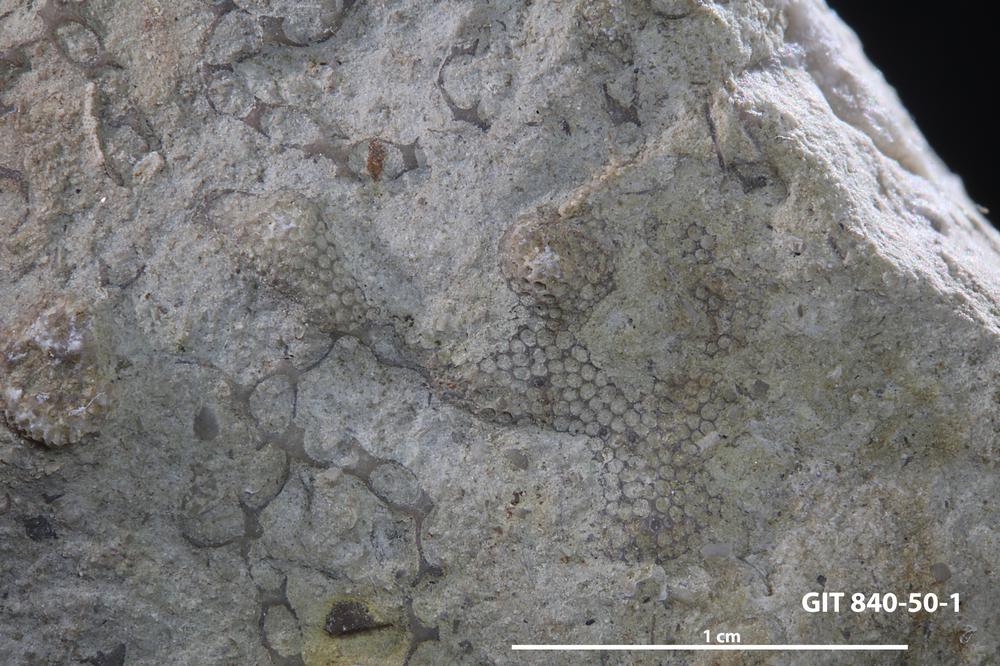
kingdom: Animalia
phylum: Bryozoa
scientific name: Bryozoa
